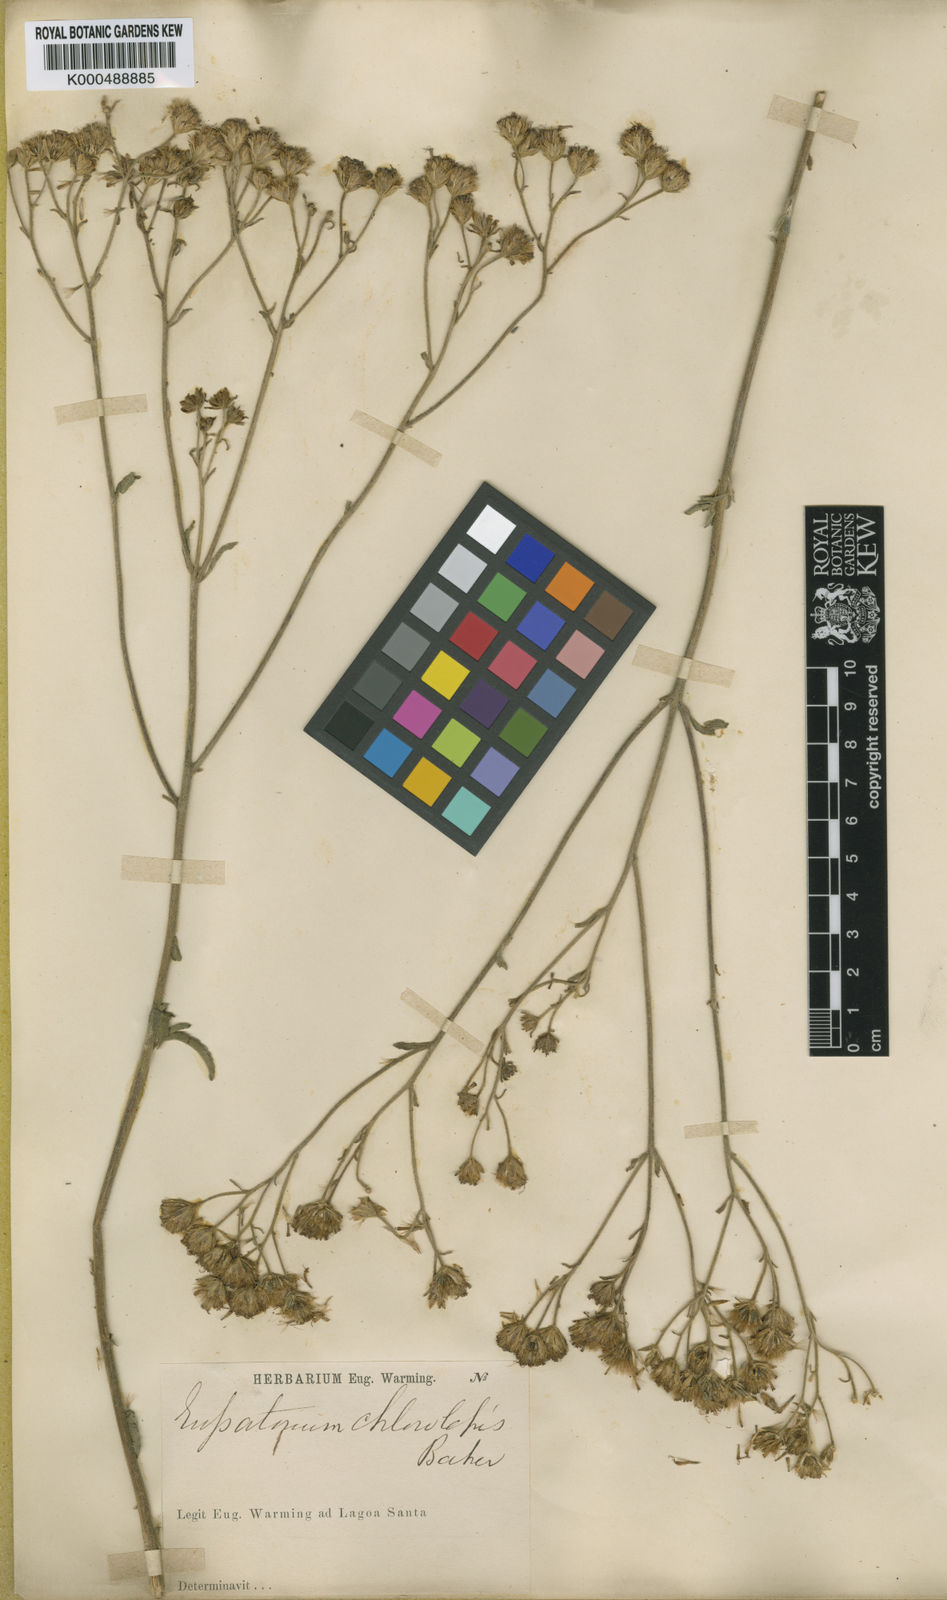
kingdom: Plantae
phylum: Tracheophyta
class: Magnoliopsida
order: Asterales
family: Asteraceae
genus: Campuloclinium
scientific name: Campuloclinium chlorolepis
